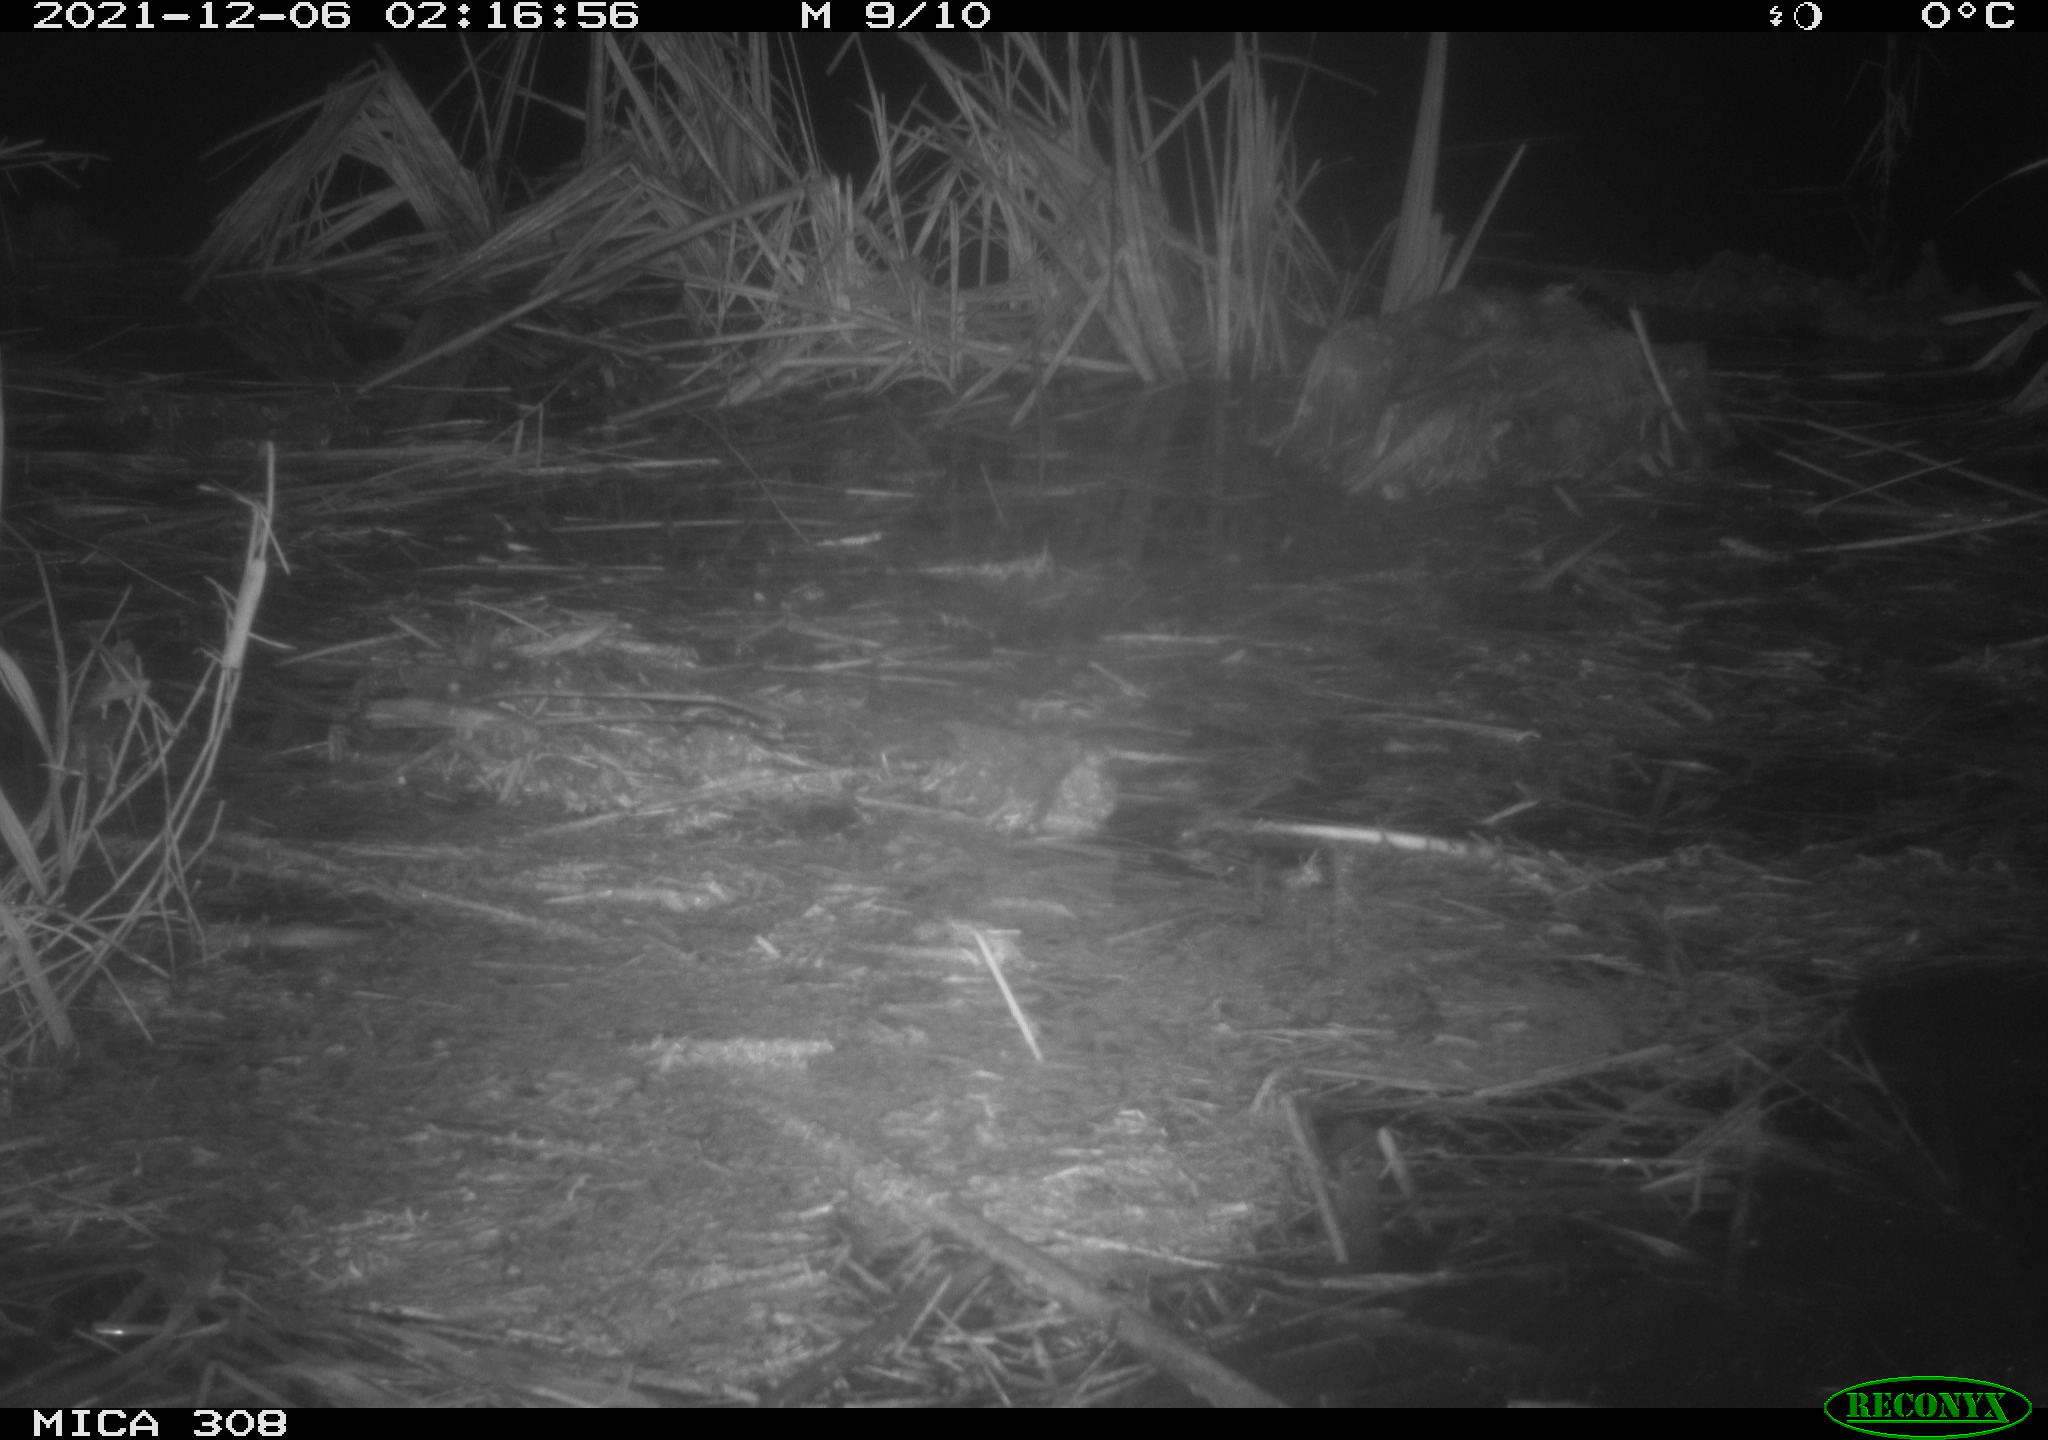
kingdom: Animalia
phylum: Chordata
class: Mammalia
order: Rodentia
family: Muridae
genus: Rattus
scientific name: Rattus norvegicus
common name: Brown rat
